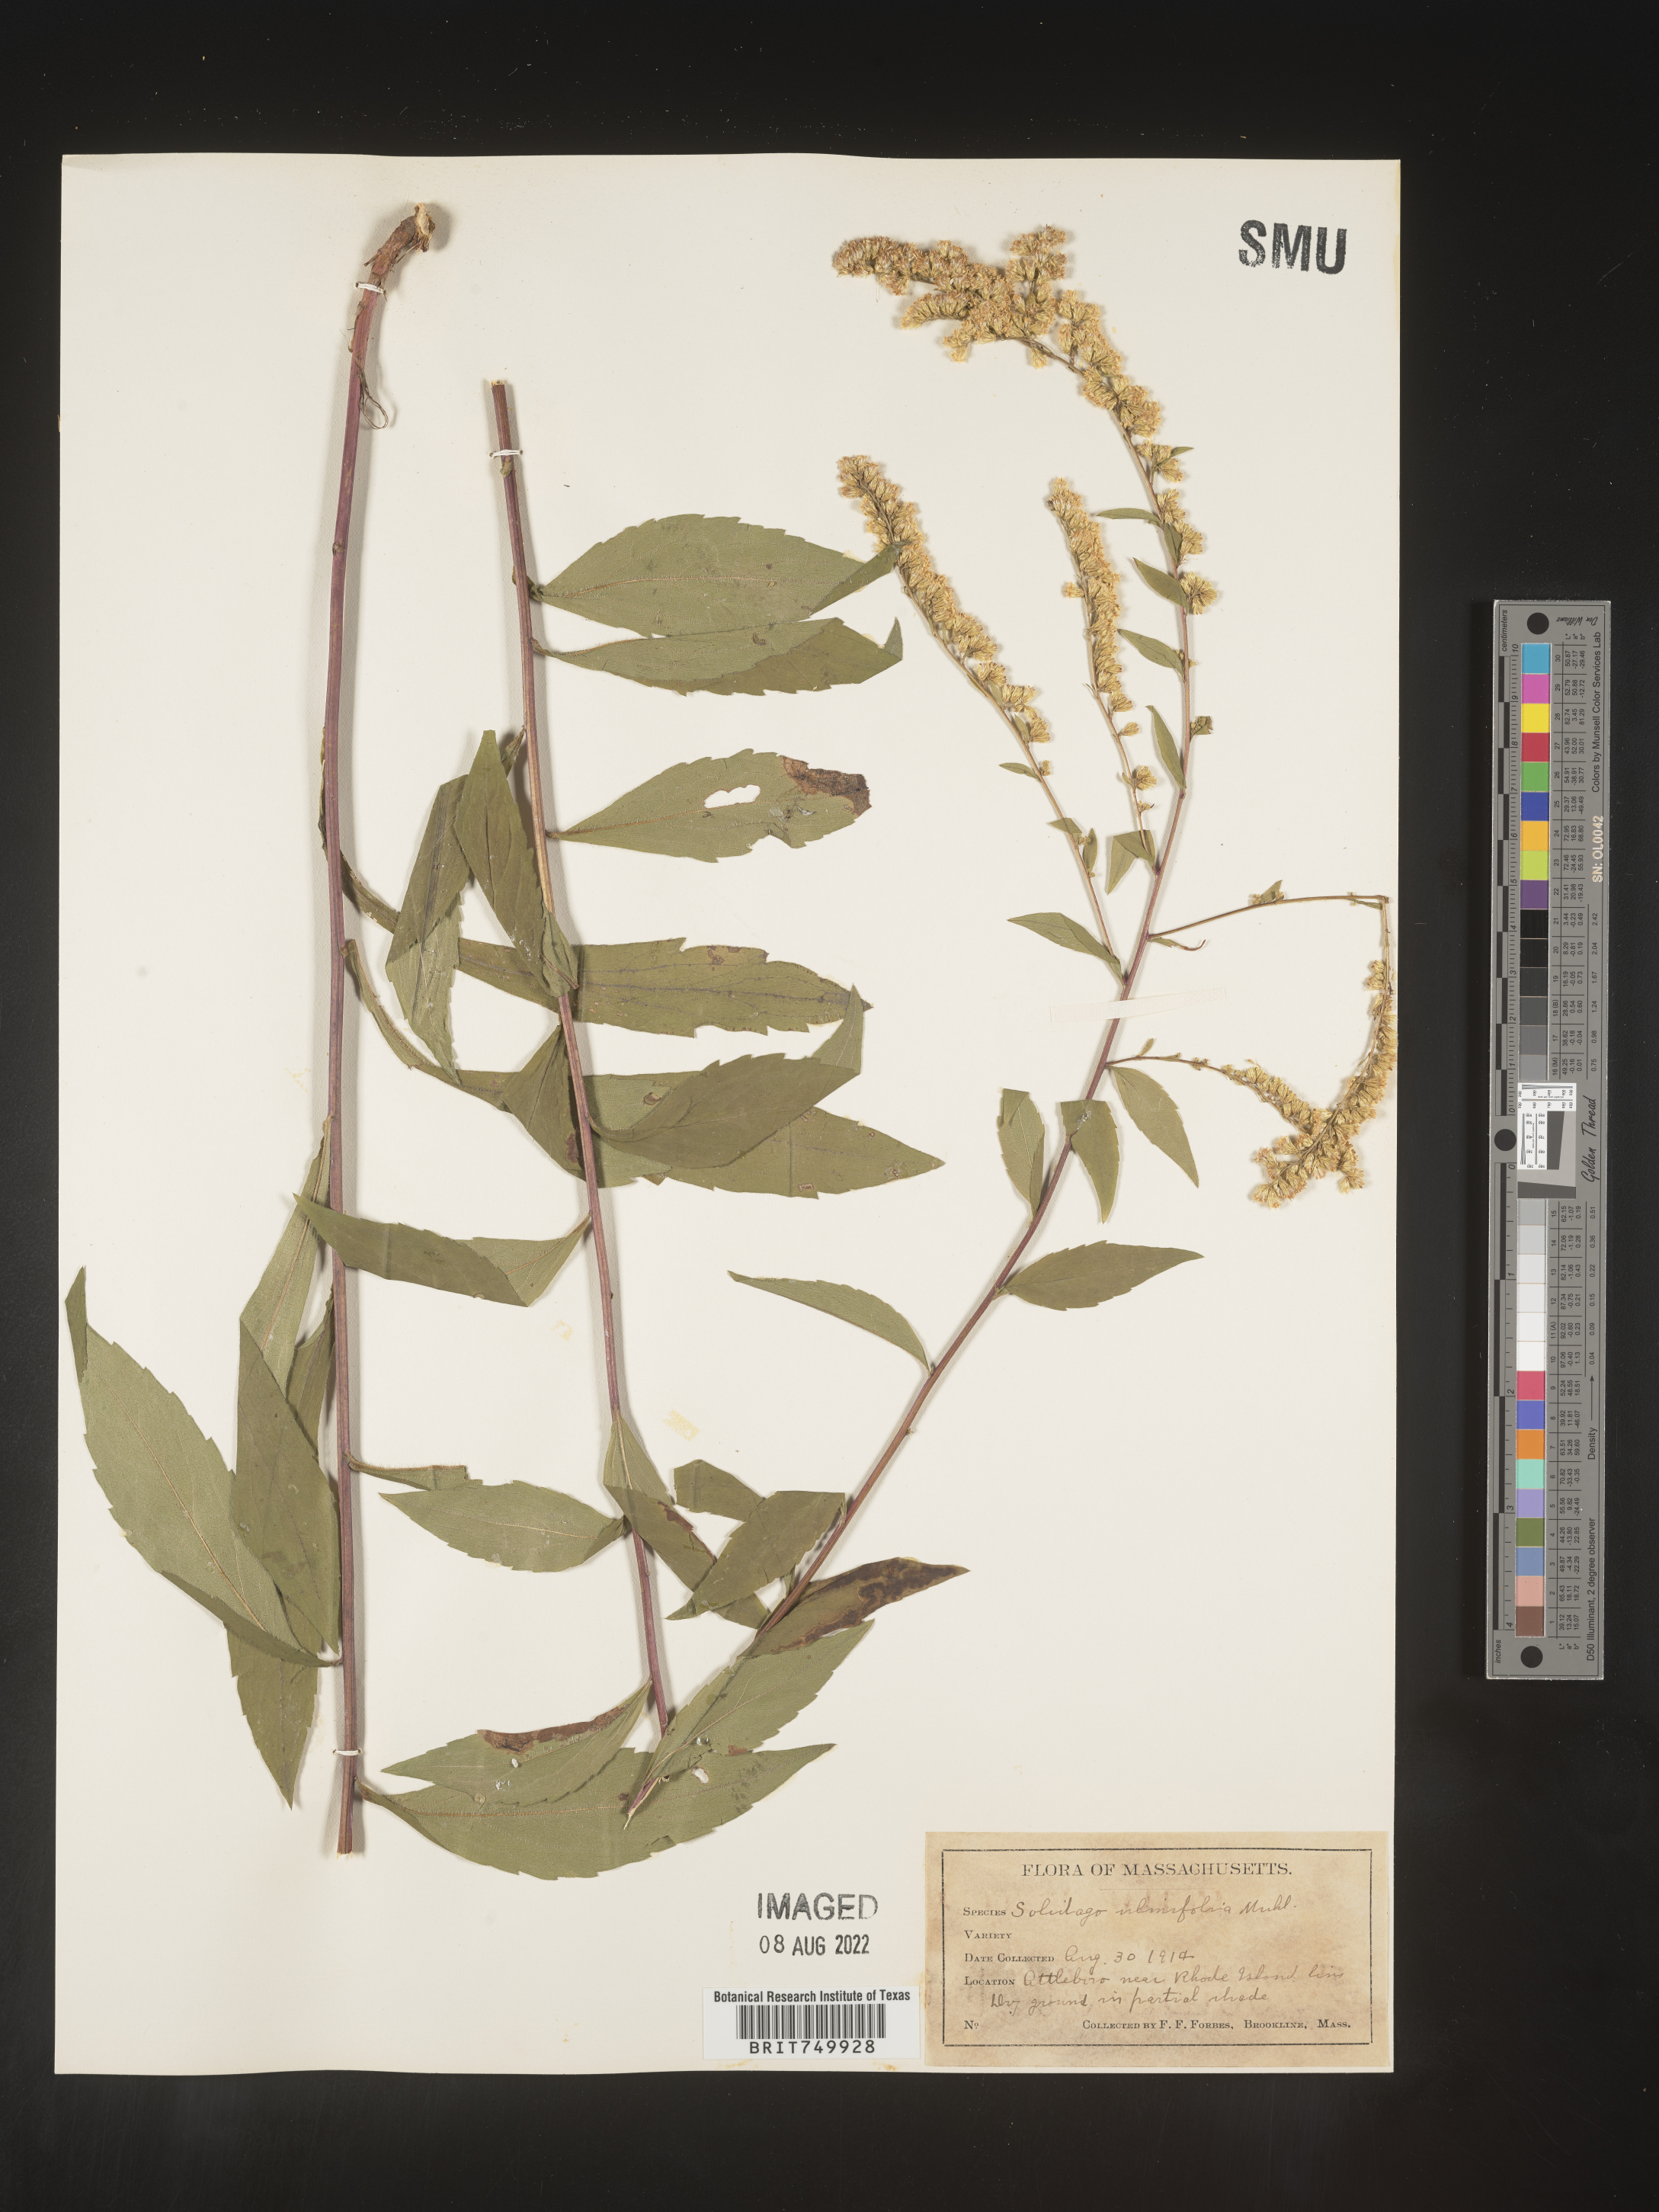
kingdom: Plantae
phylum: Tracheophyta
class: Magnoliopsida
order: Asterales
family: Asteraceae
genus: Solidago
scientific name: Solidago ulmifolia
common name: Elm-leaf goldenrod
